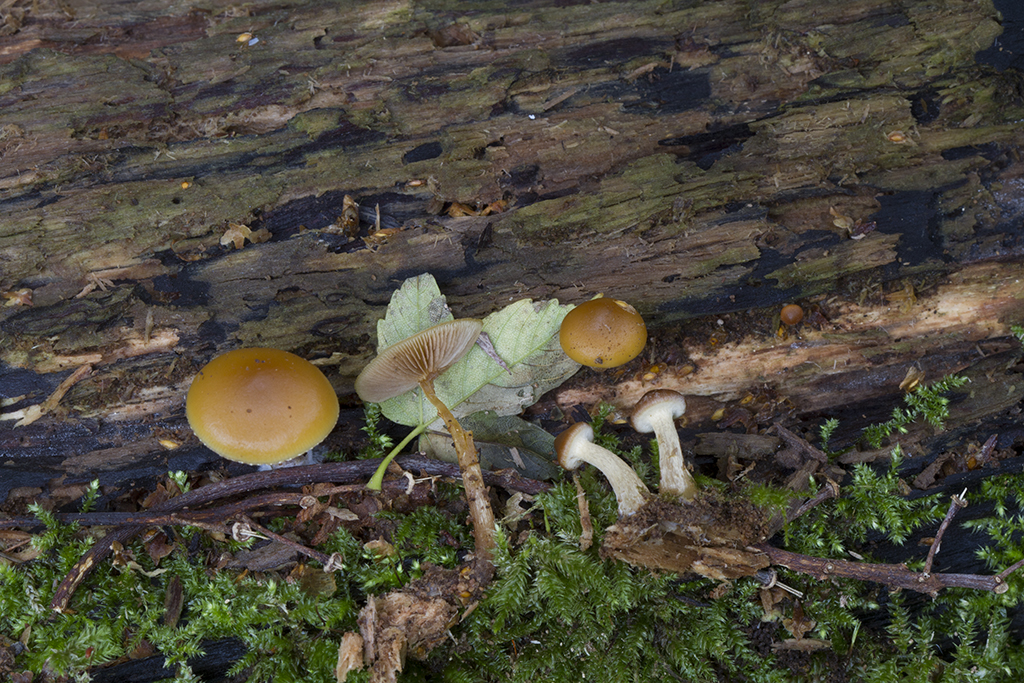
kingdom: Fungi
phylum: Basidiomycota
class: Agaricomycetes
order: Agaricales
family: Hymenogastraceae
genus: Galerina
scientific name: Galerina marginata
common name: randbæltet hjelmhat
